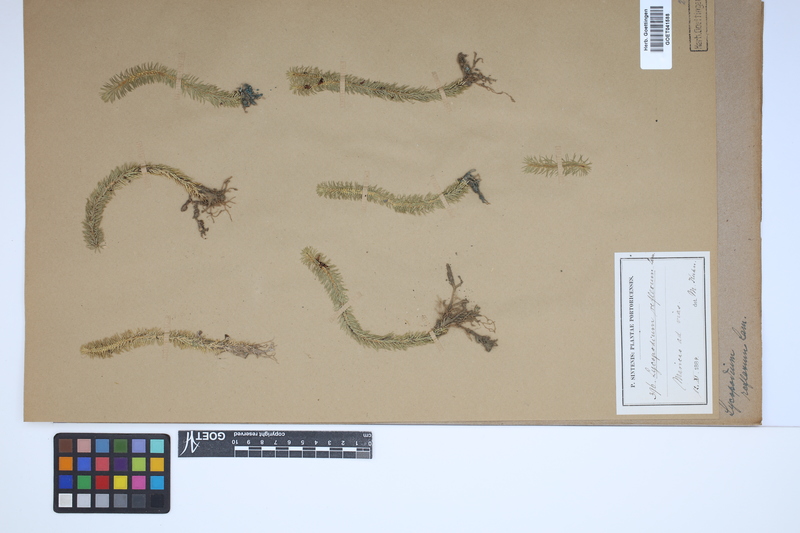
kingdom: Plantae
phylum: Tracheophyta
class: Lycopodiopsida
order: Lycopodiales
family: Lycopodiaceae
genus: Huperzia
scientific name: Huperzia lucidula
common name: Shining clubmoss
